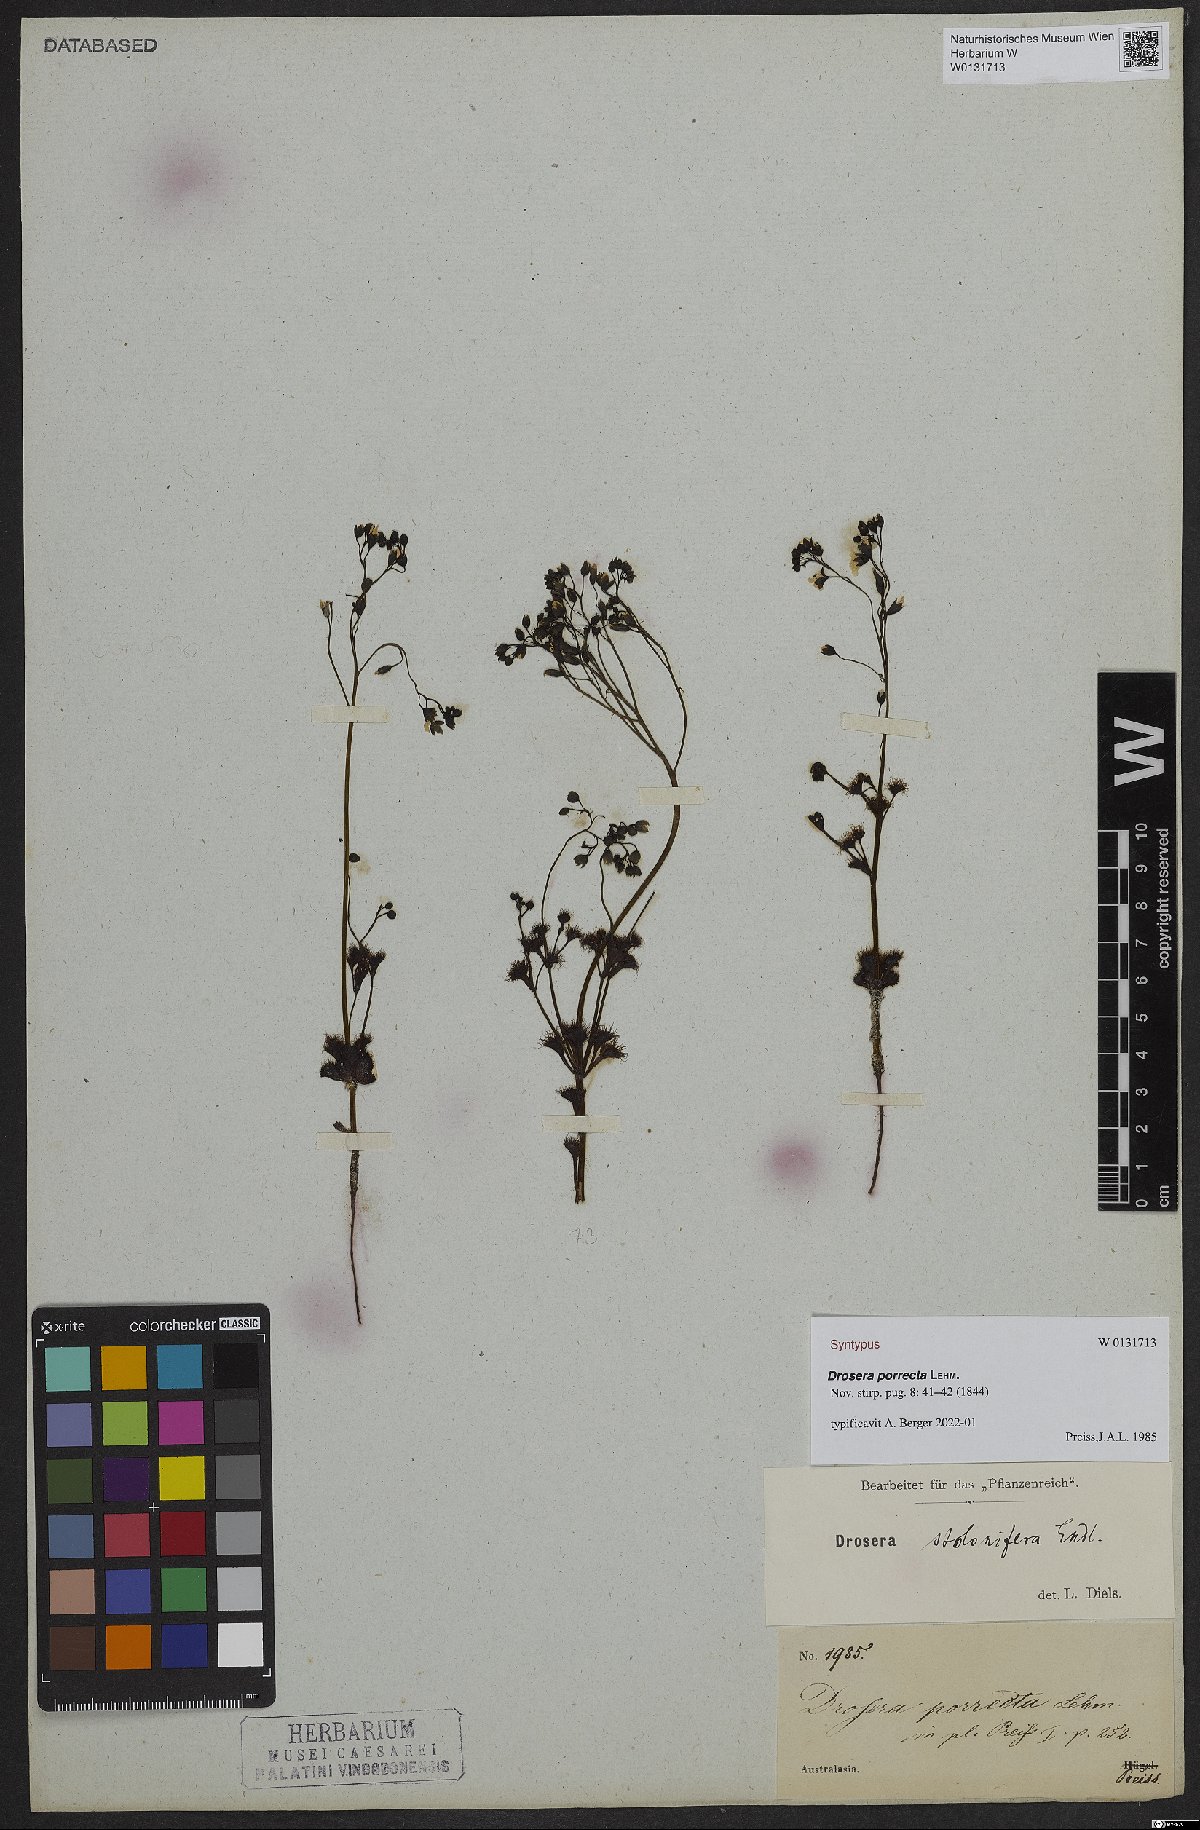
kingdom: Plantae
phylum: Tracheophyta
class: Magnoliopsida
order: Caryophyllales
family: Droseraceae
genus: Drosera
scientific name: Drosera stolonifera
